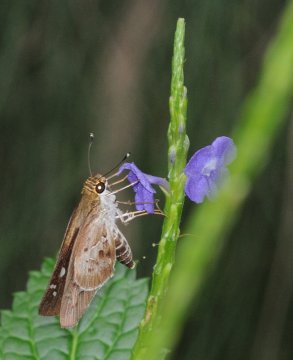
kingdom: Animalia
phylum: Arthropoda
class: Insecta
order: Lepidoptera
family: Hesperiidae
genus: Andronymus
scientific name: Andronymus neander
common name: Nomad Dart
